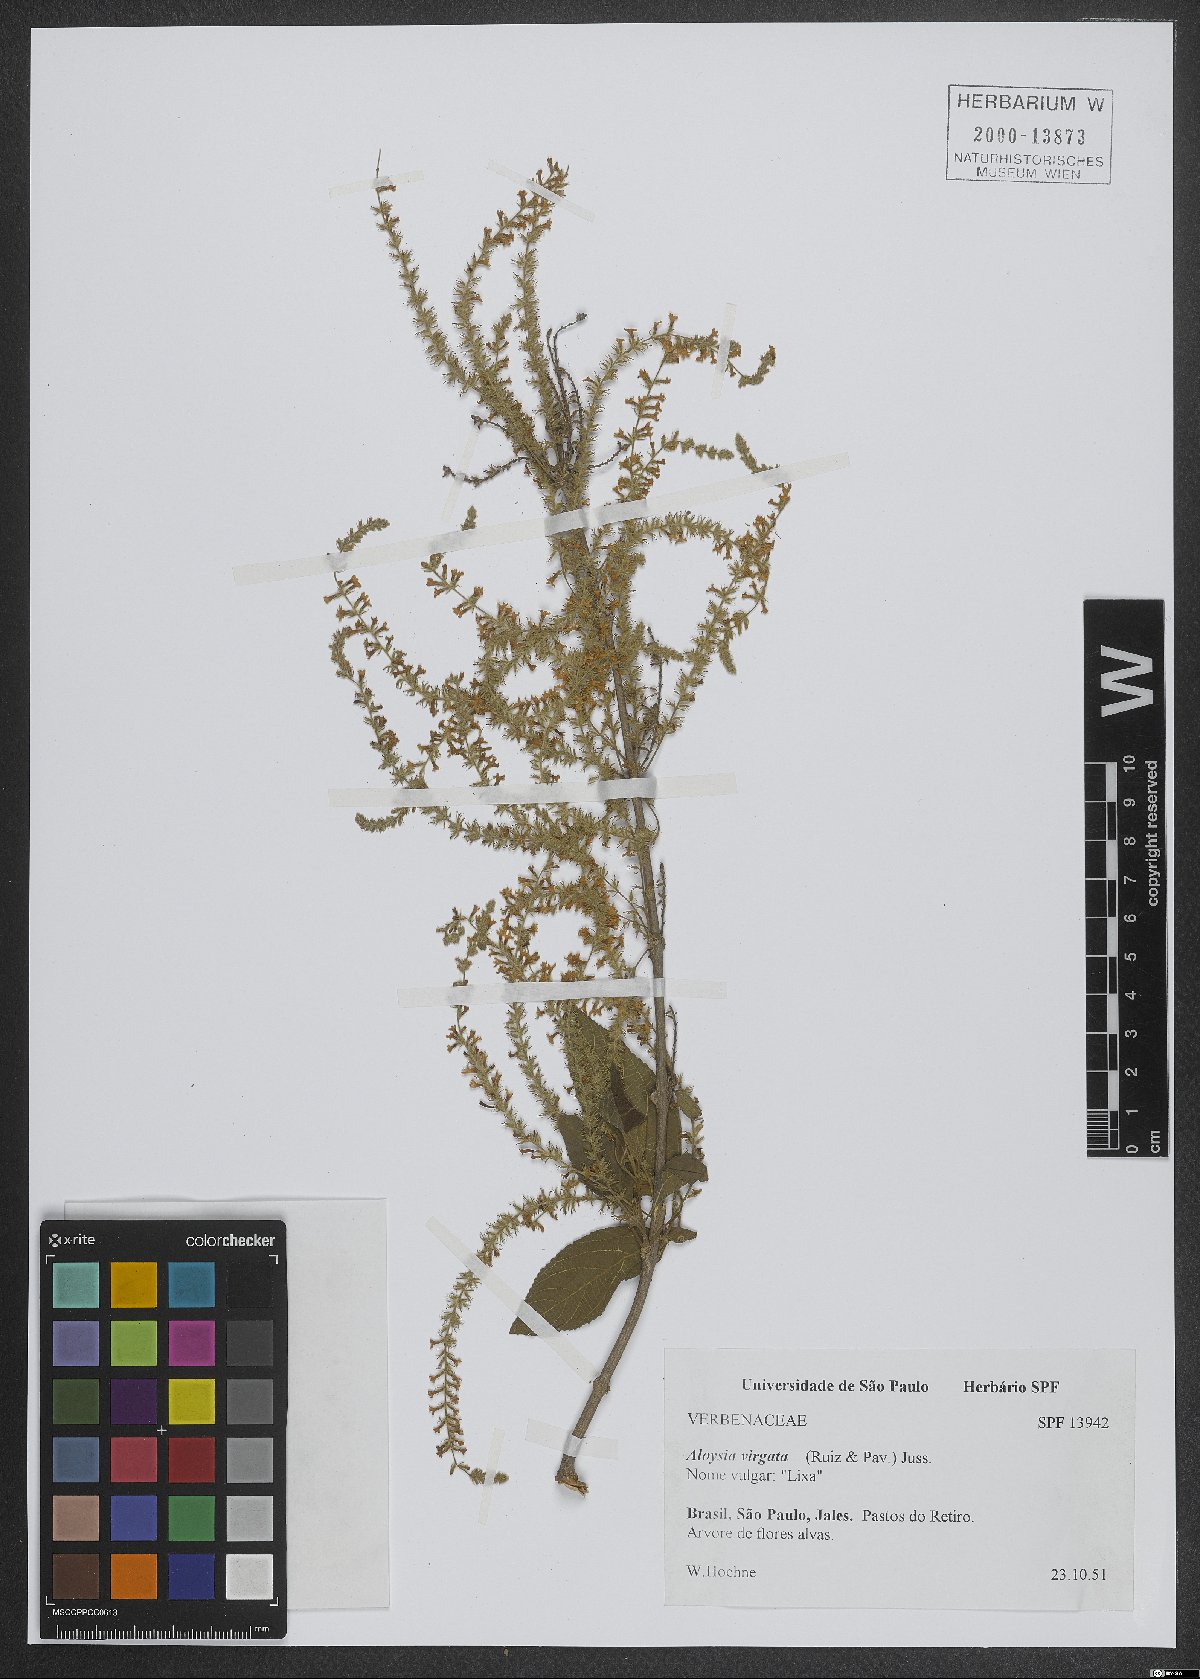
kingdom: Plantae
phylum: Tracheophyta
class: Magnoliopsida
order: Lamiales
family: Verbenaceae
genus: Aloysia
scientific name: Aloysia virgata
